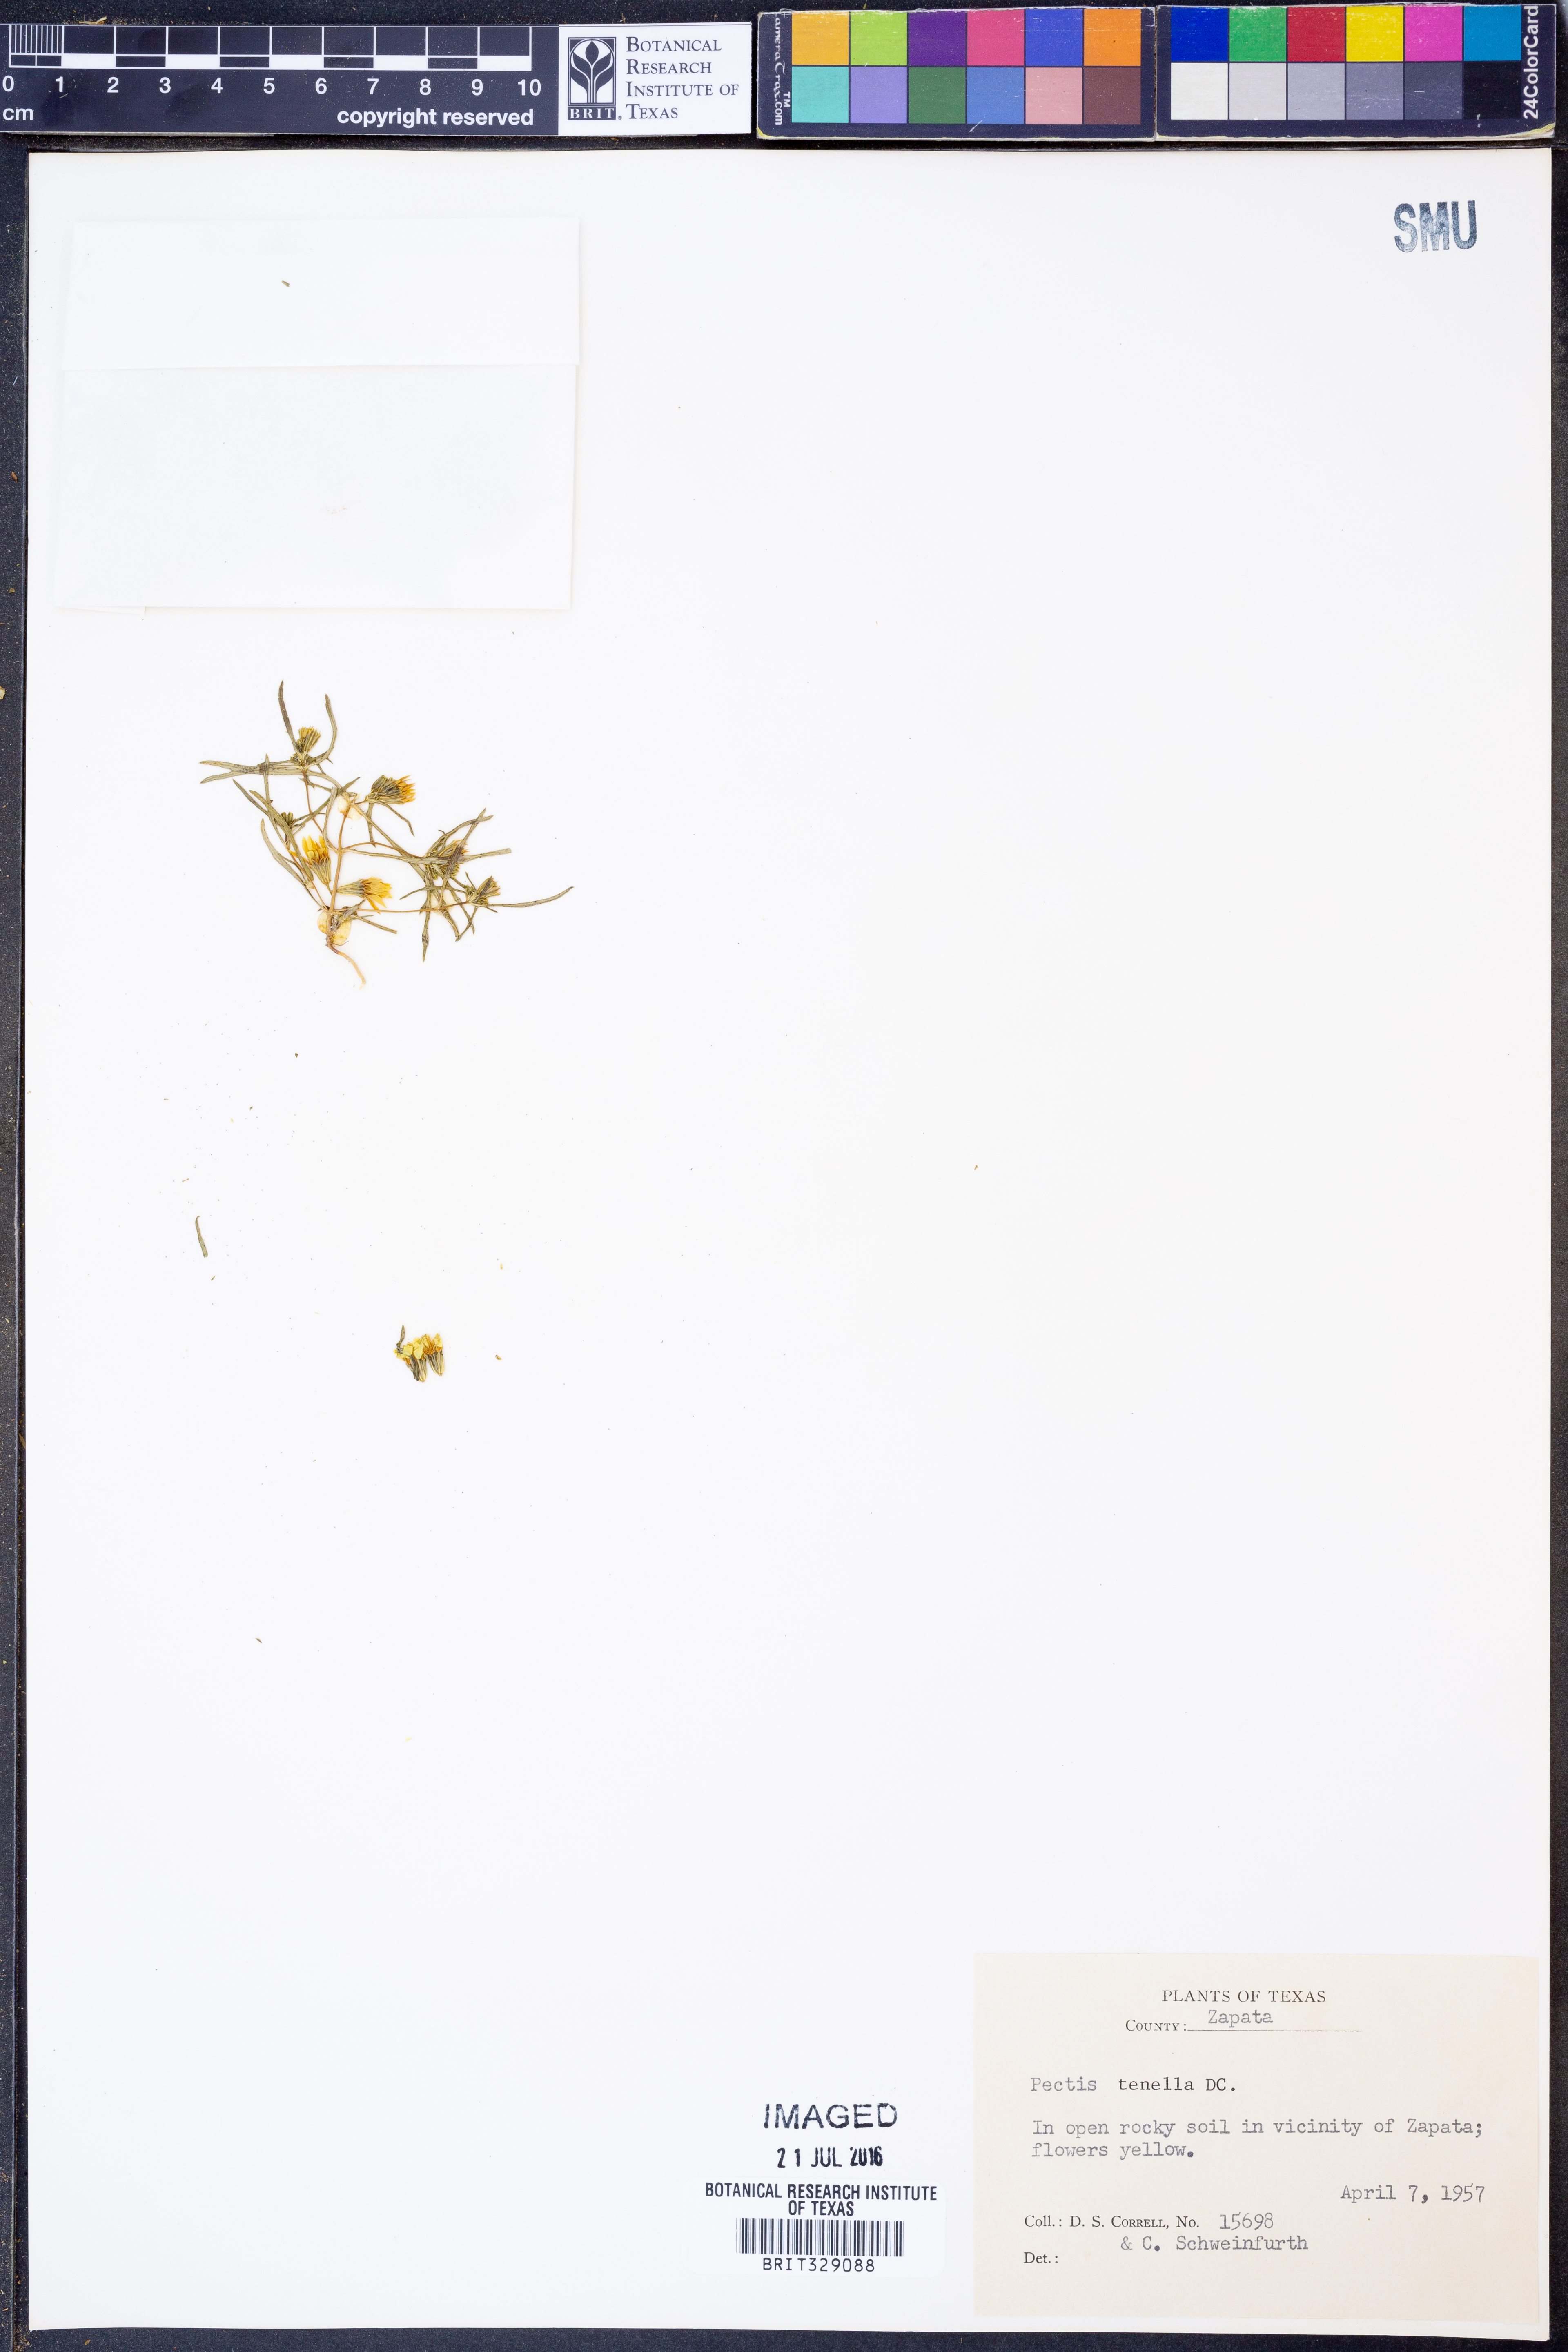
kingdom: Plantae
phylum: Tracheophyta
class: Magnoliopsida
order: Asterales
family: Asteraceae
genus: Pectis
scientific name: Pectis angustifolia
